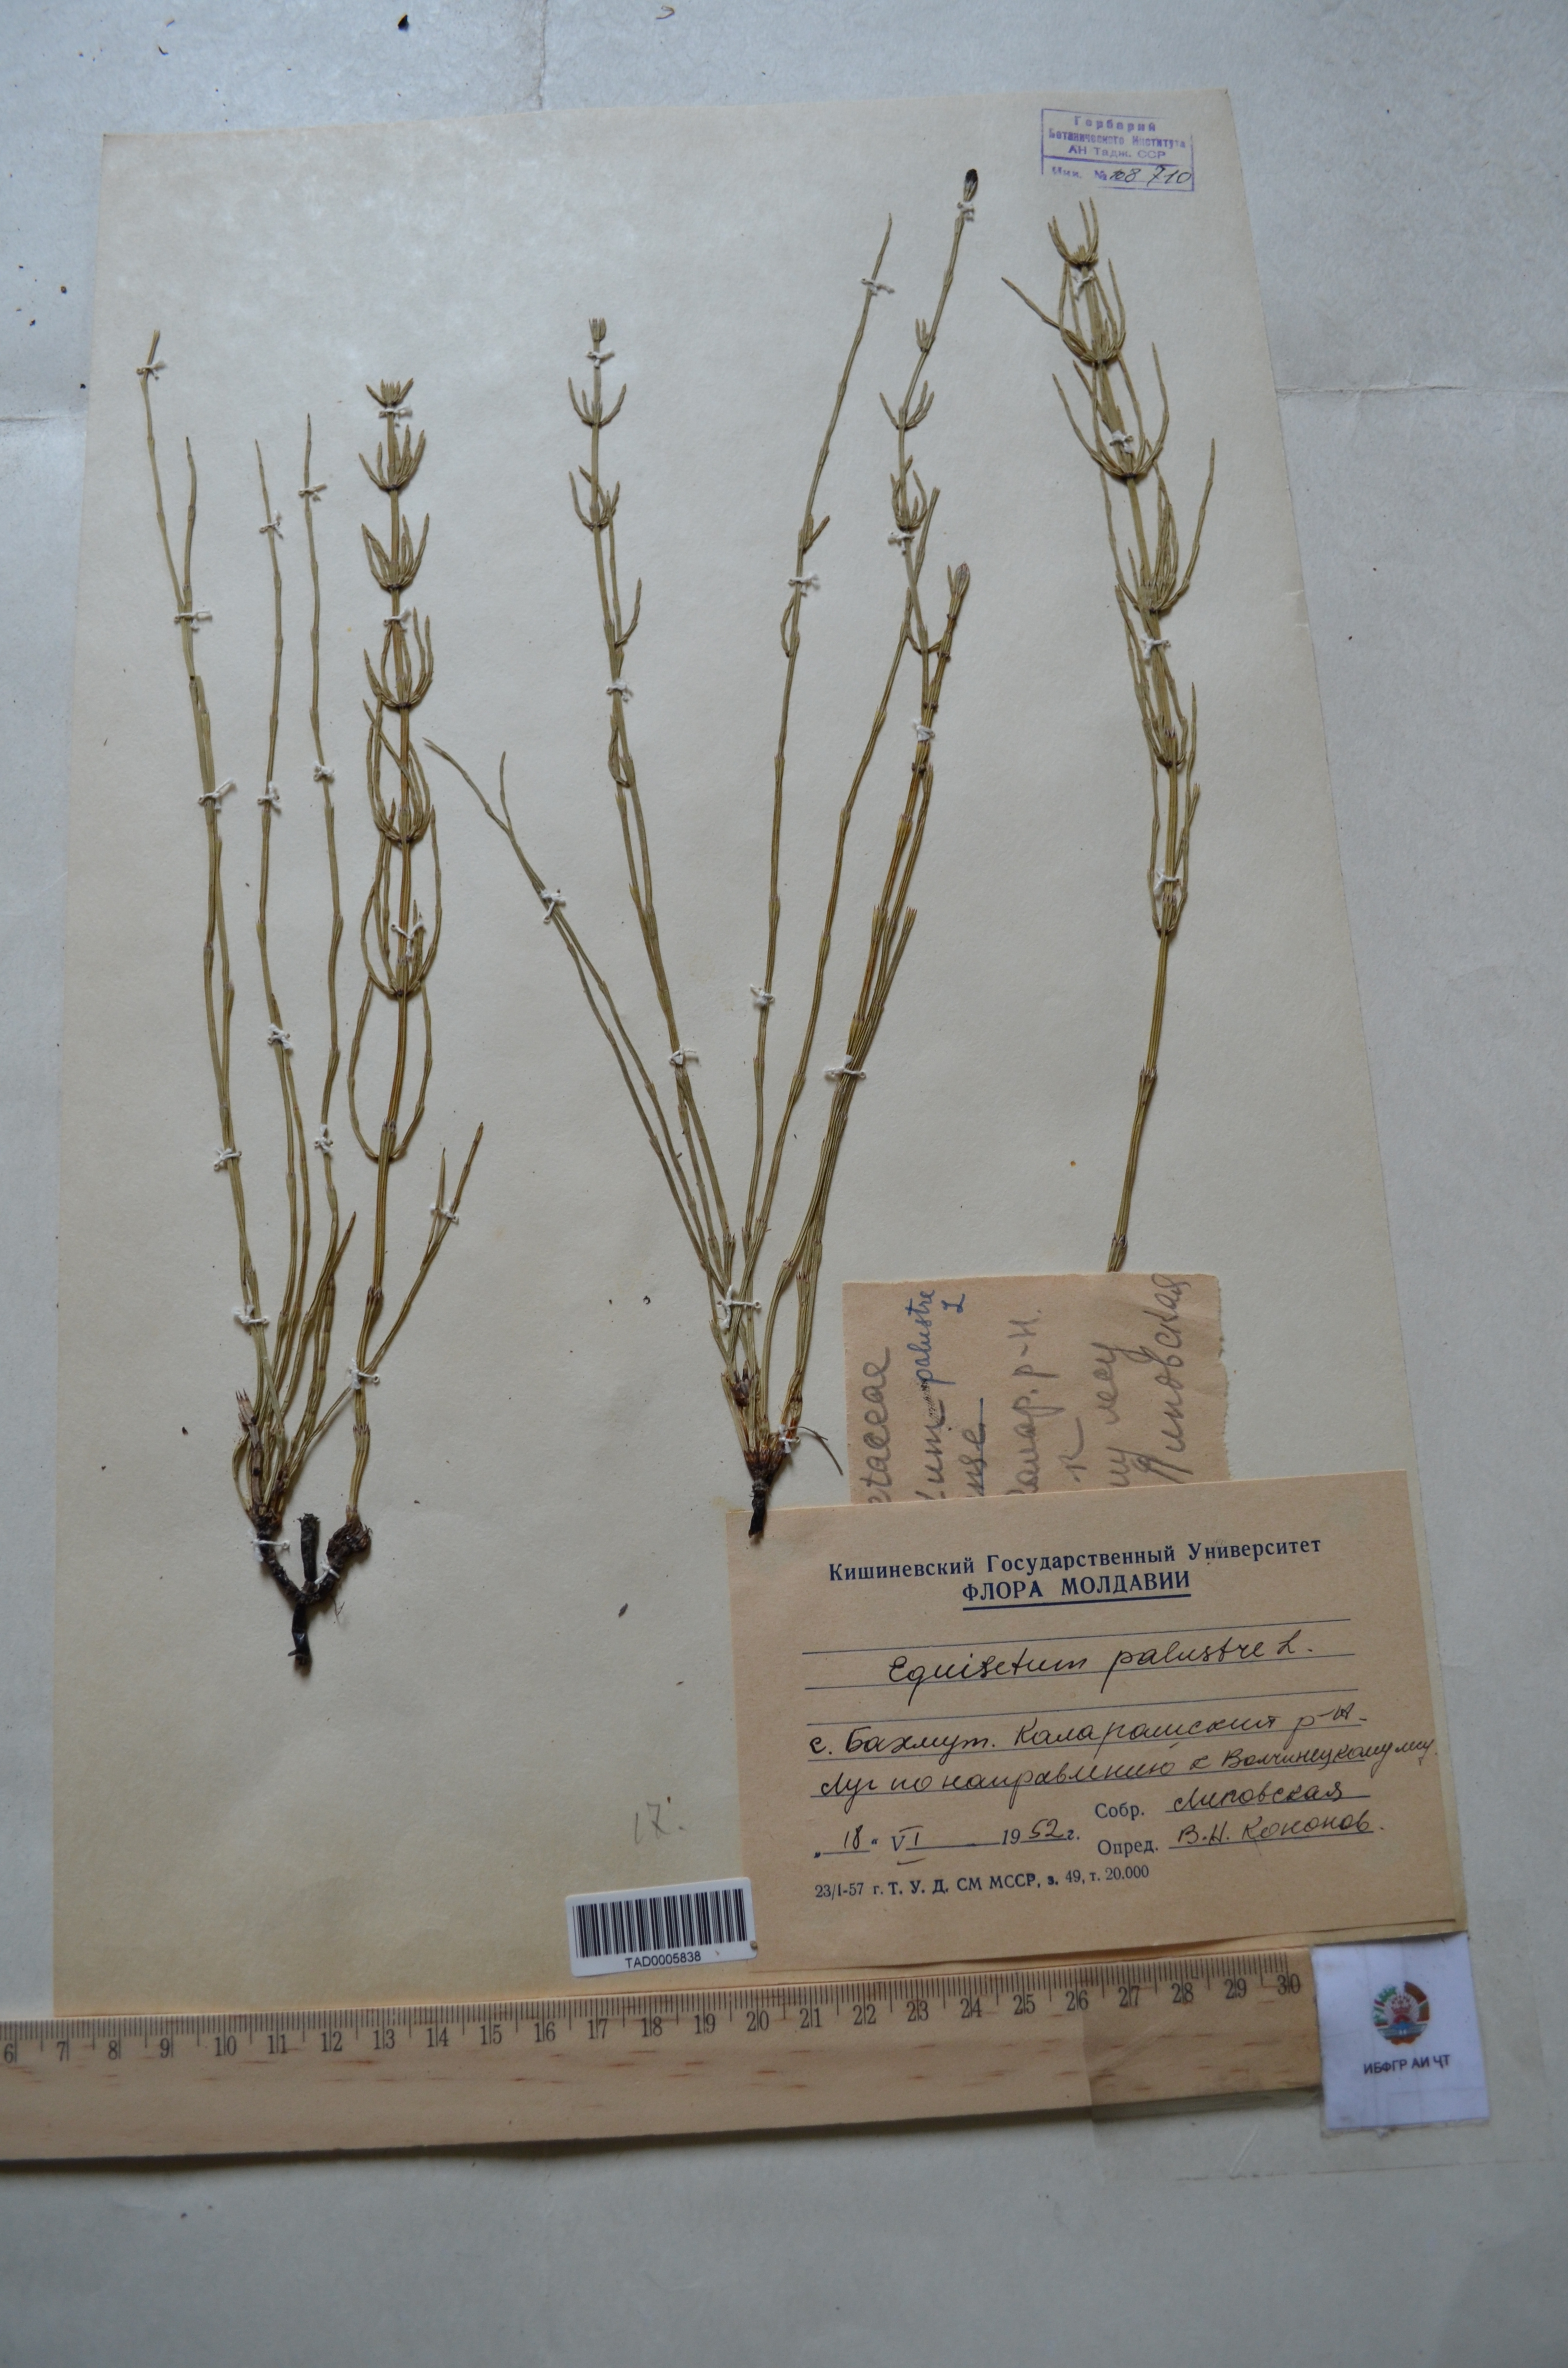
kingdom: Plantae
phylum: Tracheophyta
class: Polypodiopsida
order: Equisetales
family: Equisetaceae
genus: Equisetum
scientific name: Equisetum palustre
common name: Marsh horsetail
